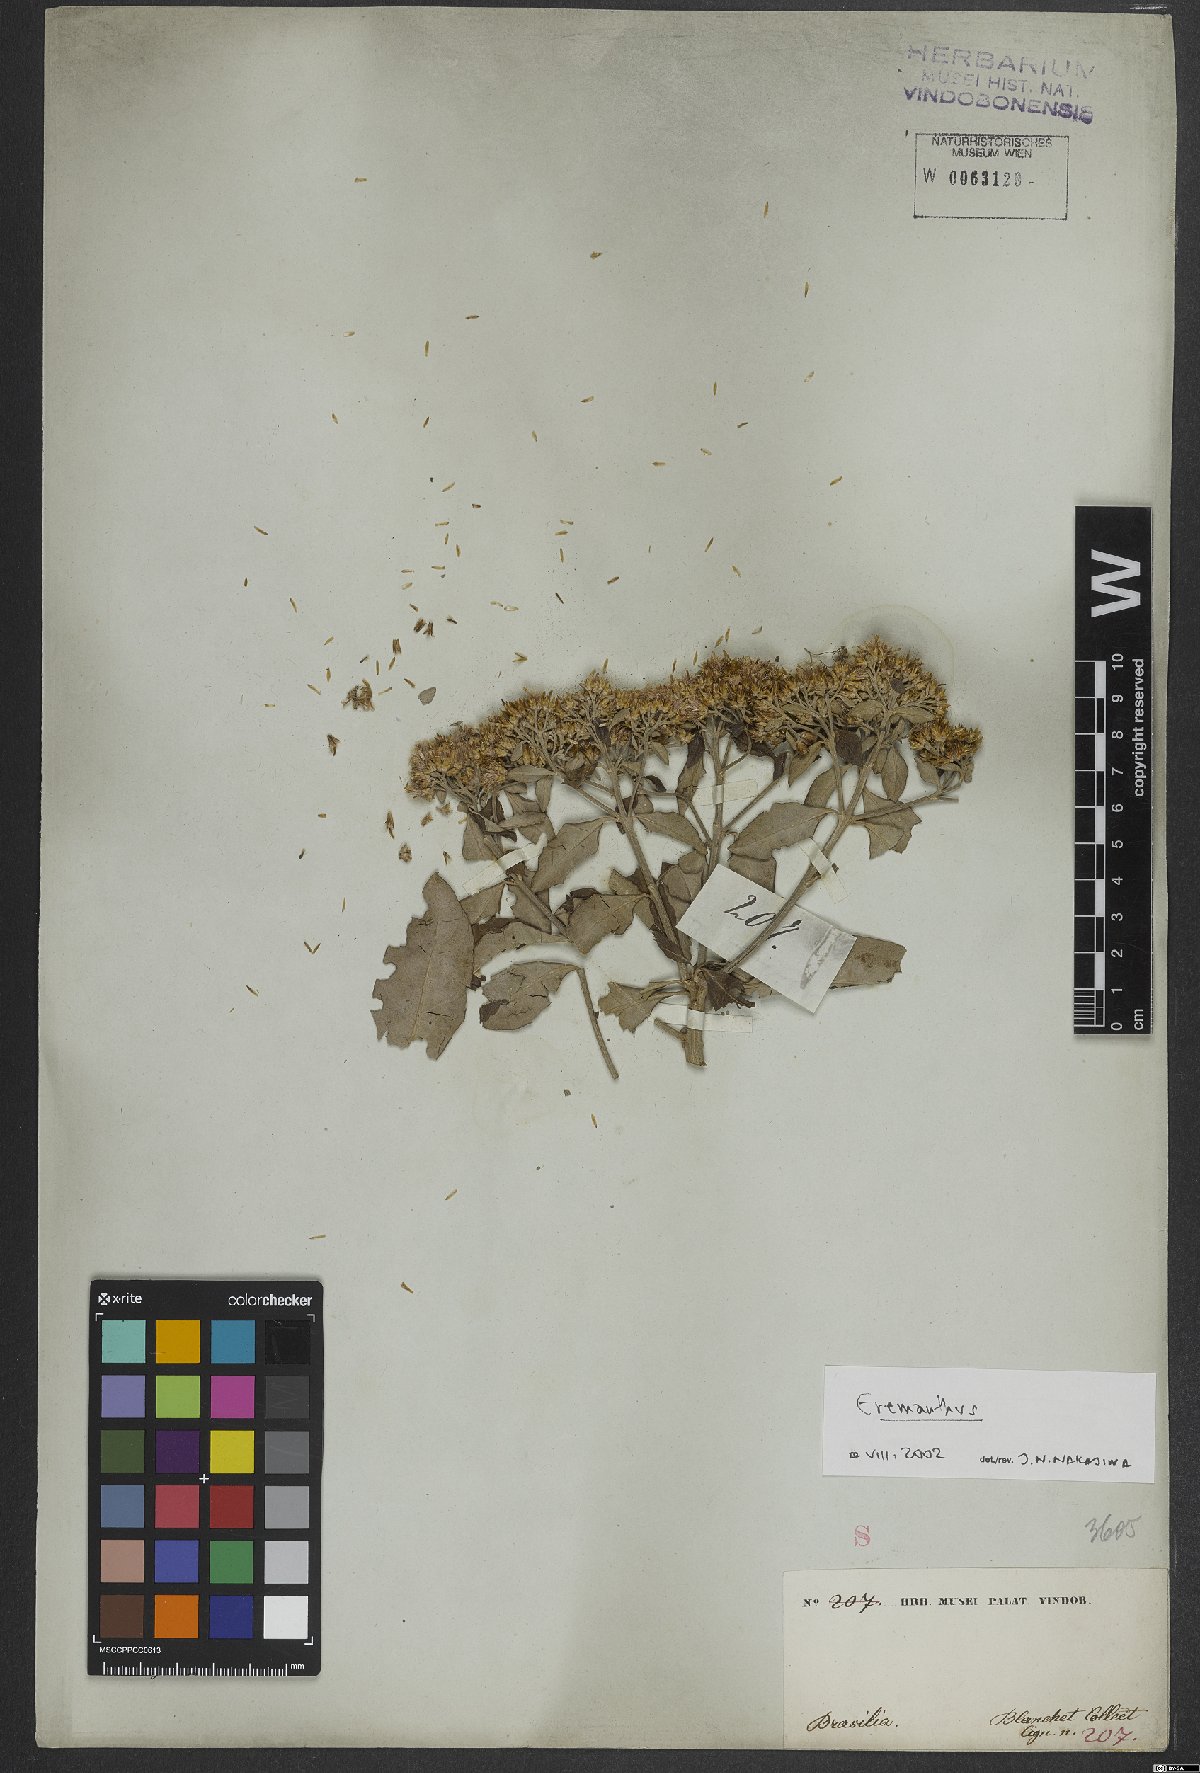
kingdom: Plantae
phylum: Tracheophyta
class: Magnoliopsida
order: Asterales
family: Asteraceae
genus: Eremanthus
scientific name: Eremanthus
